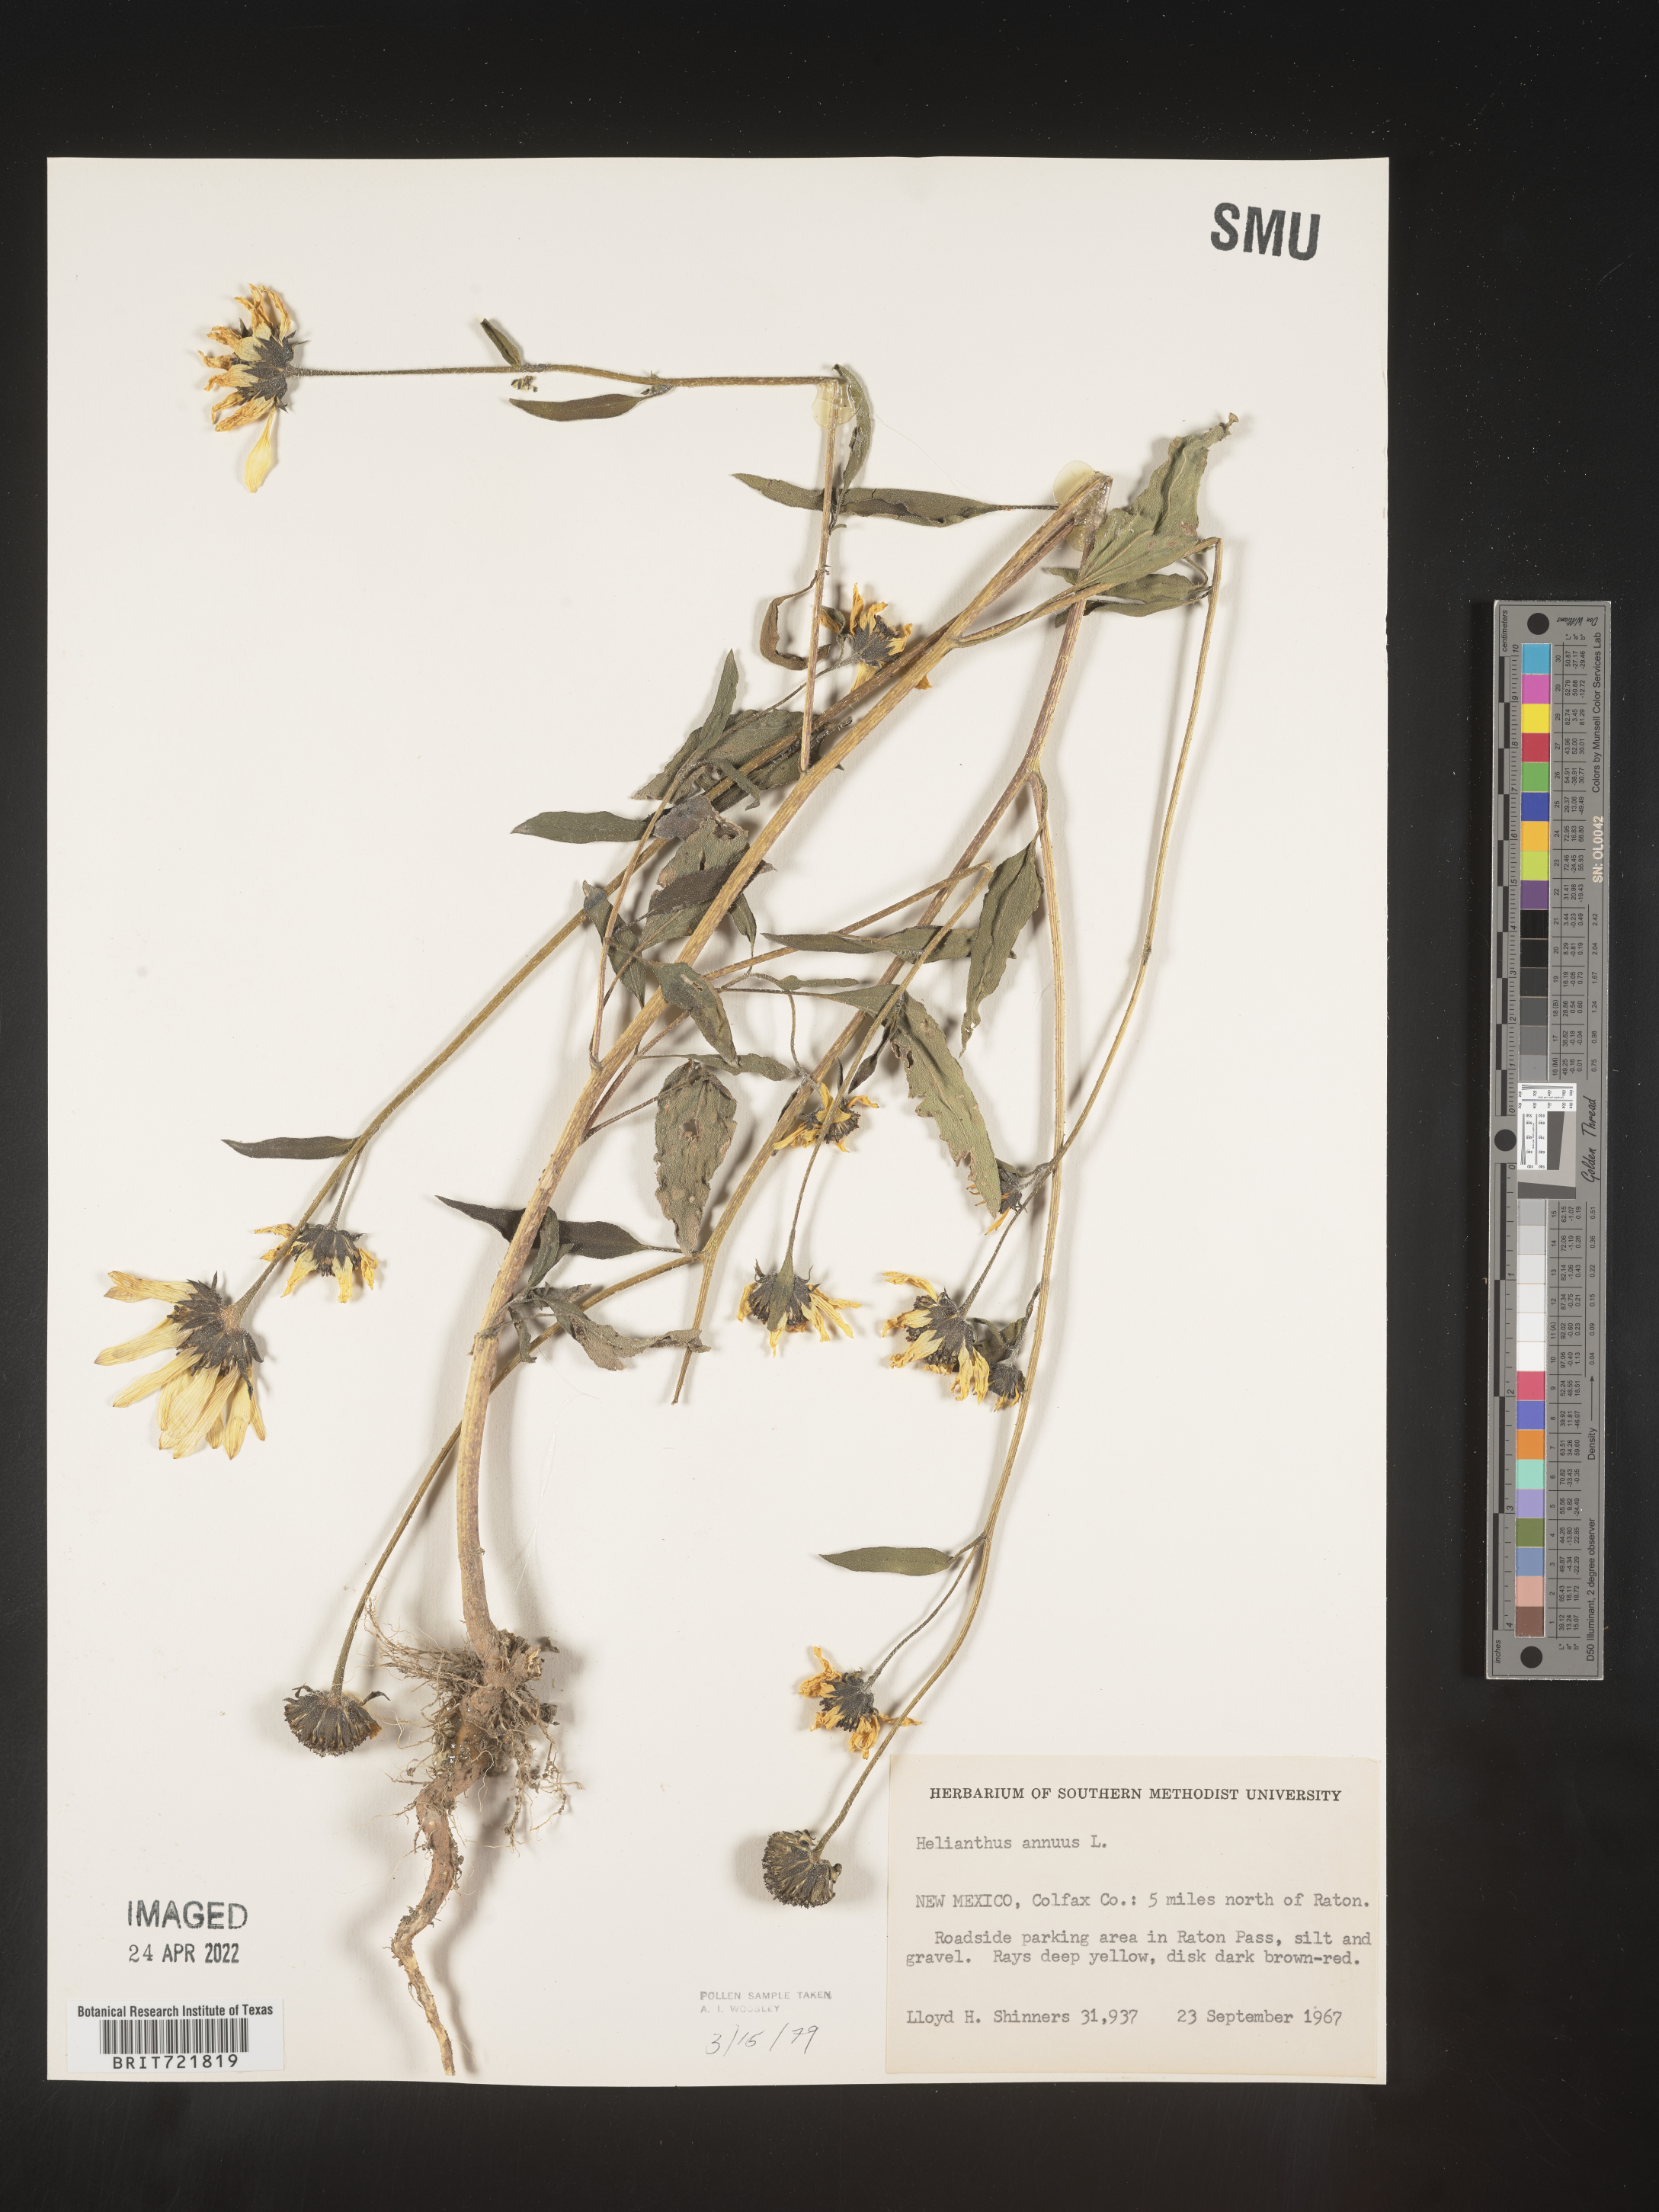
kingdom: Plantae
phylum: Tracheophyta
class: Magnoliopsida
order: Asterales
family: Asteraceae
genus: Helianthus
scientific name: Helianthus annuus
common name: Sunflower
